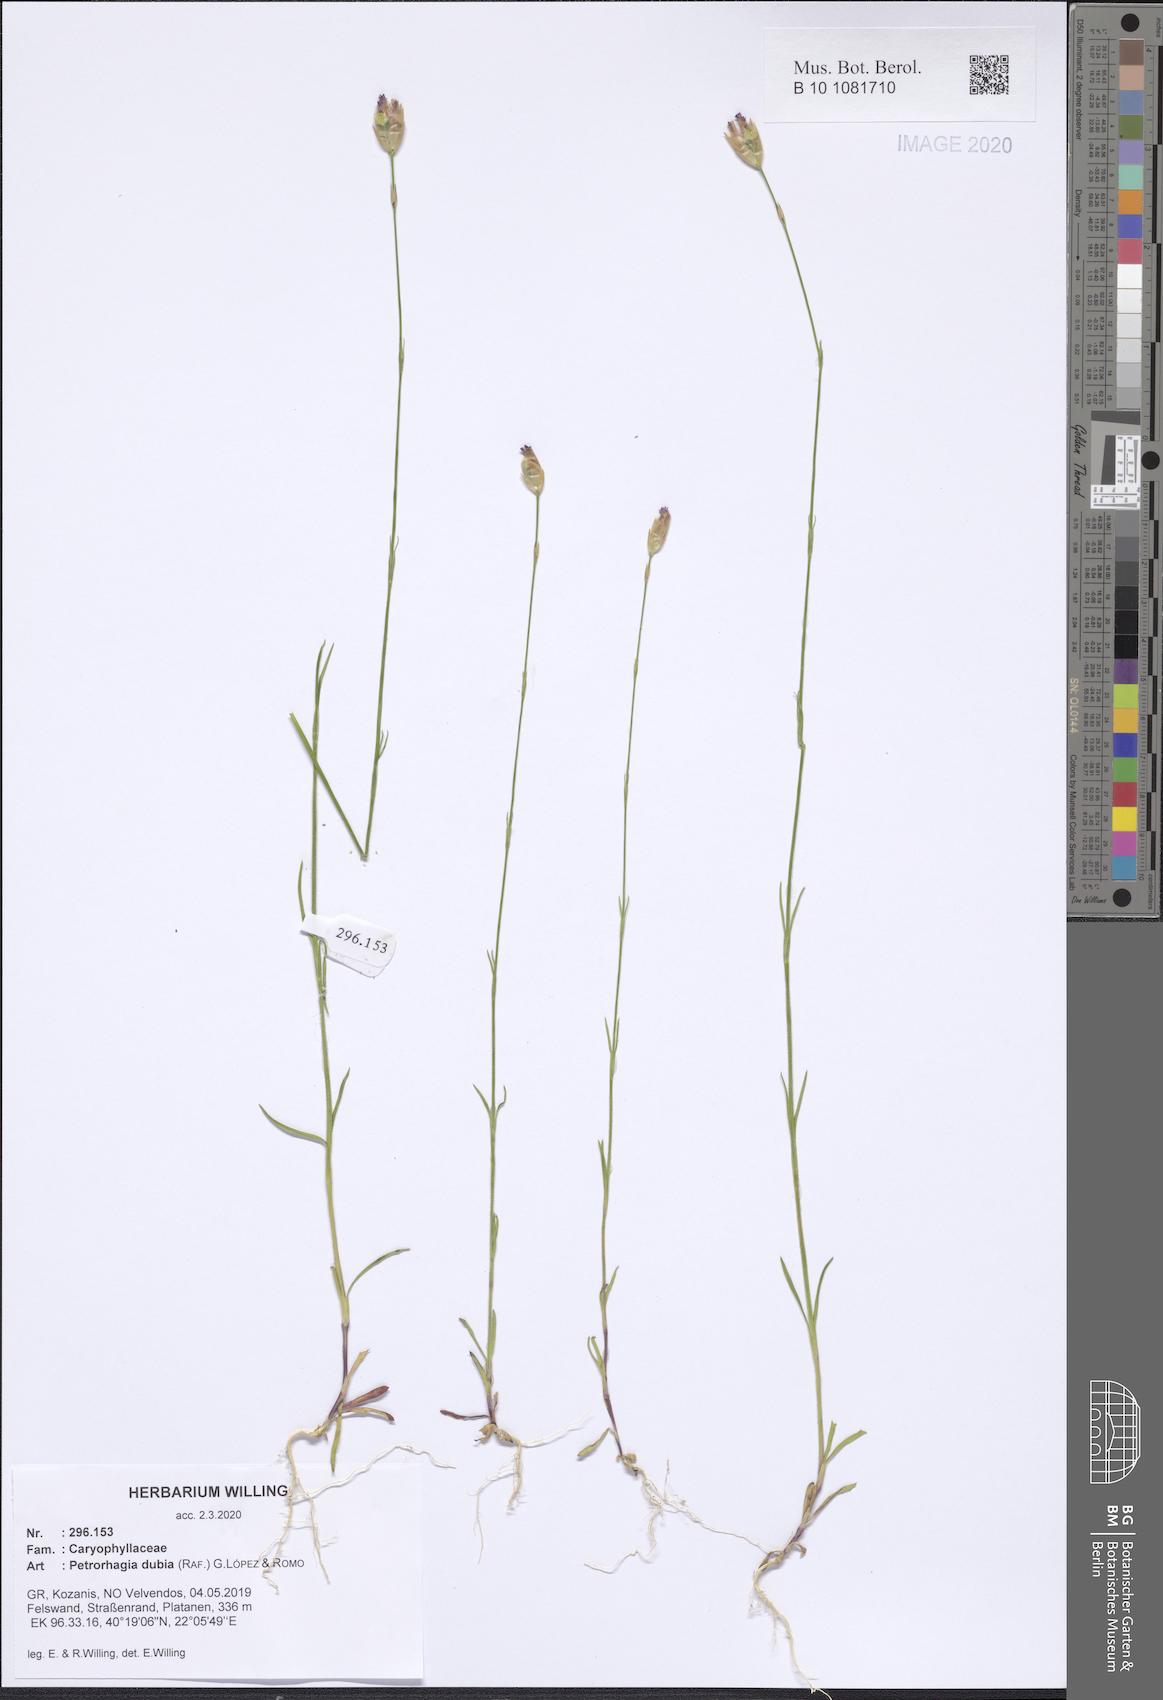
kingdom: Plantae
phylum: Tracheophyta
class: Magnoliopsida
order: Caryophyllales
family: Caryophyllaceae
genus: Petrorhagia
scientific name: Petrorhagia dubia
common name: Hairypink
